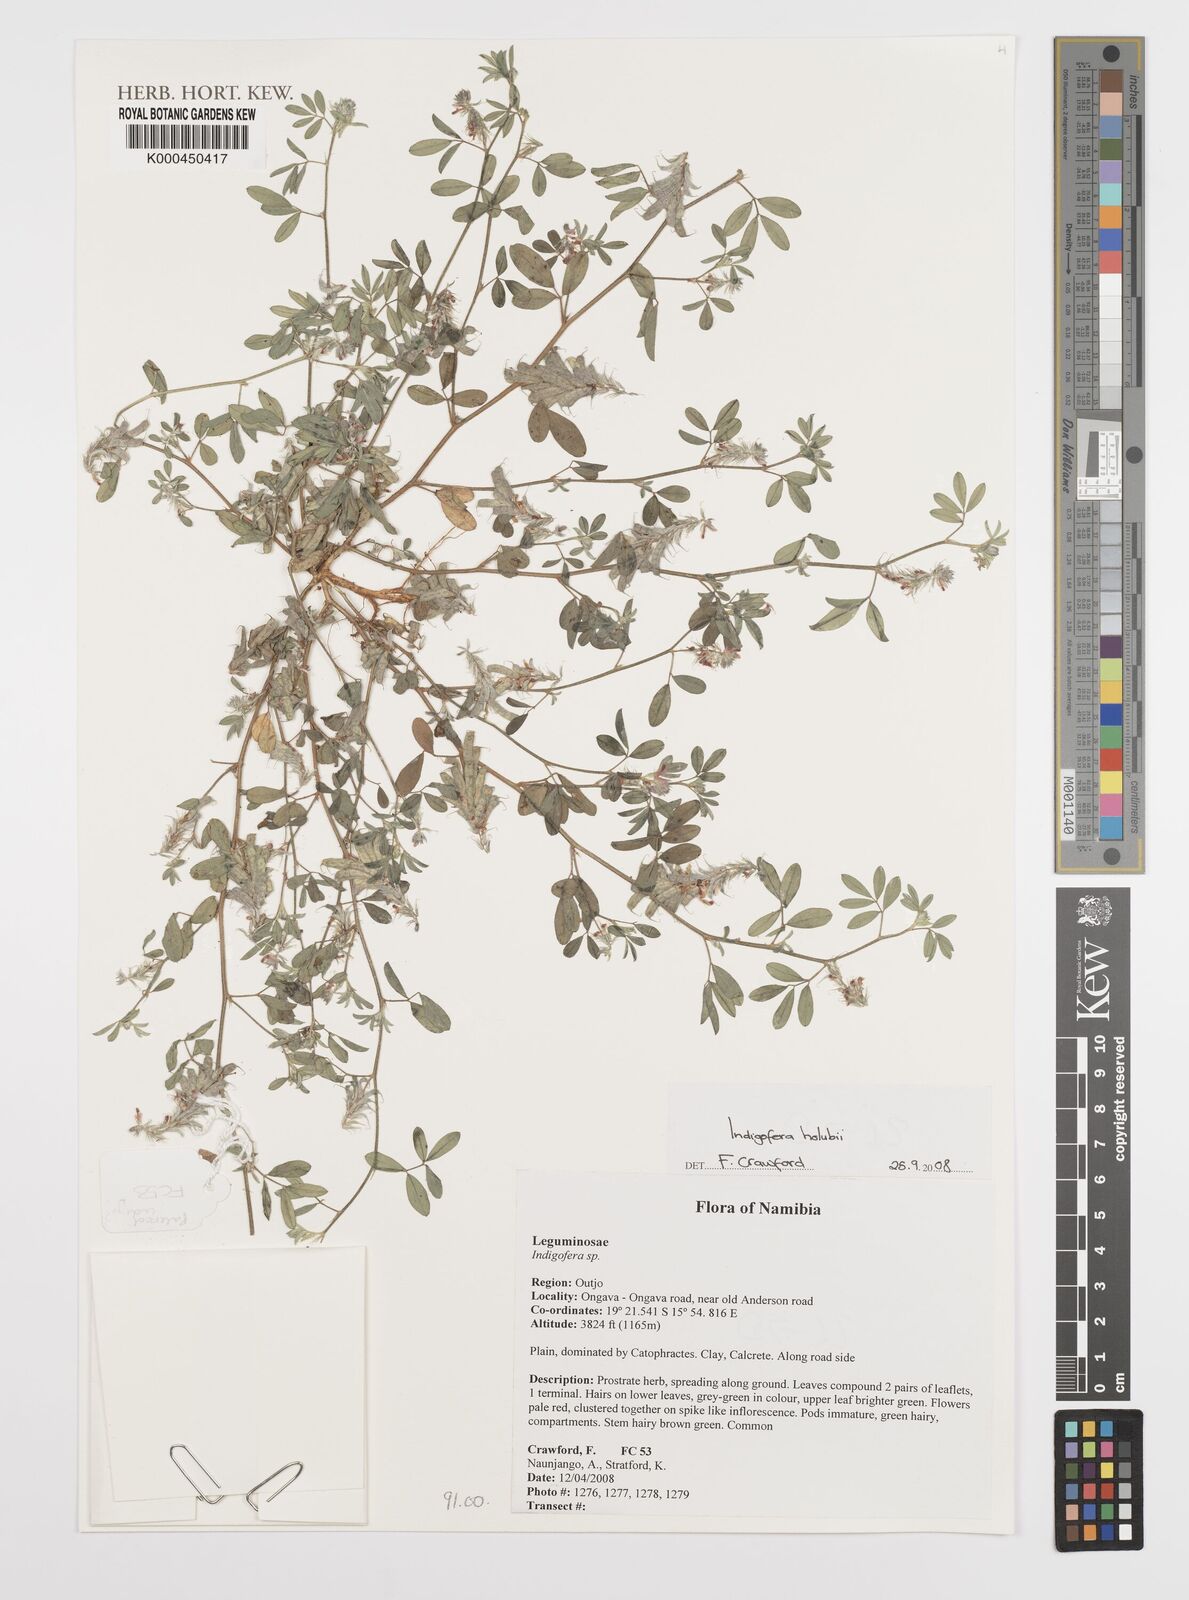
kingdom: Plantae
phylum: Tracheophyta
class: Magnoliopsida
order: Fabales
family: Fabaceae
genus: Indigofera
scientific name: Indigofera holubii
